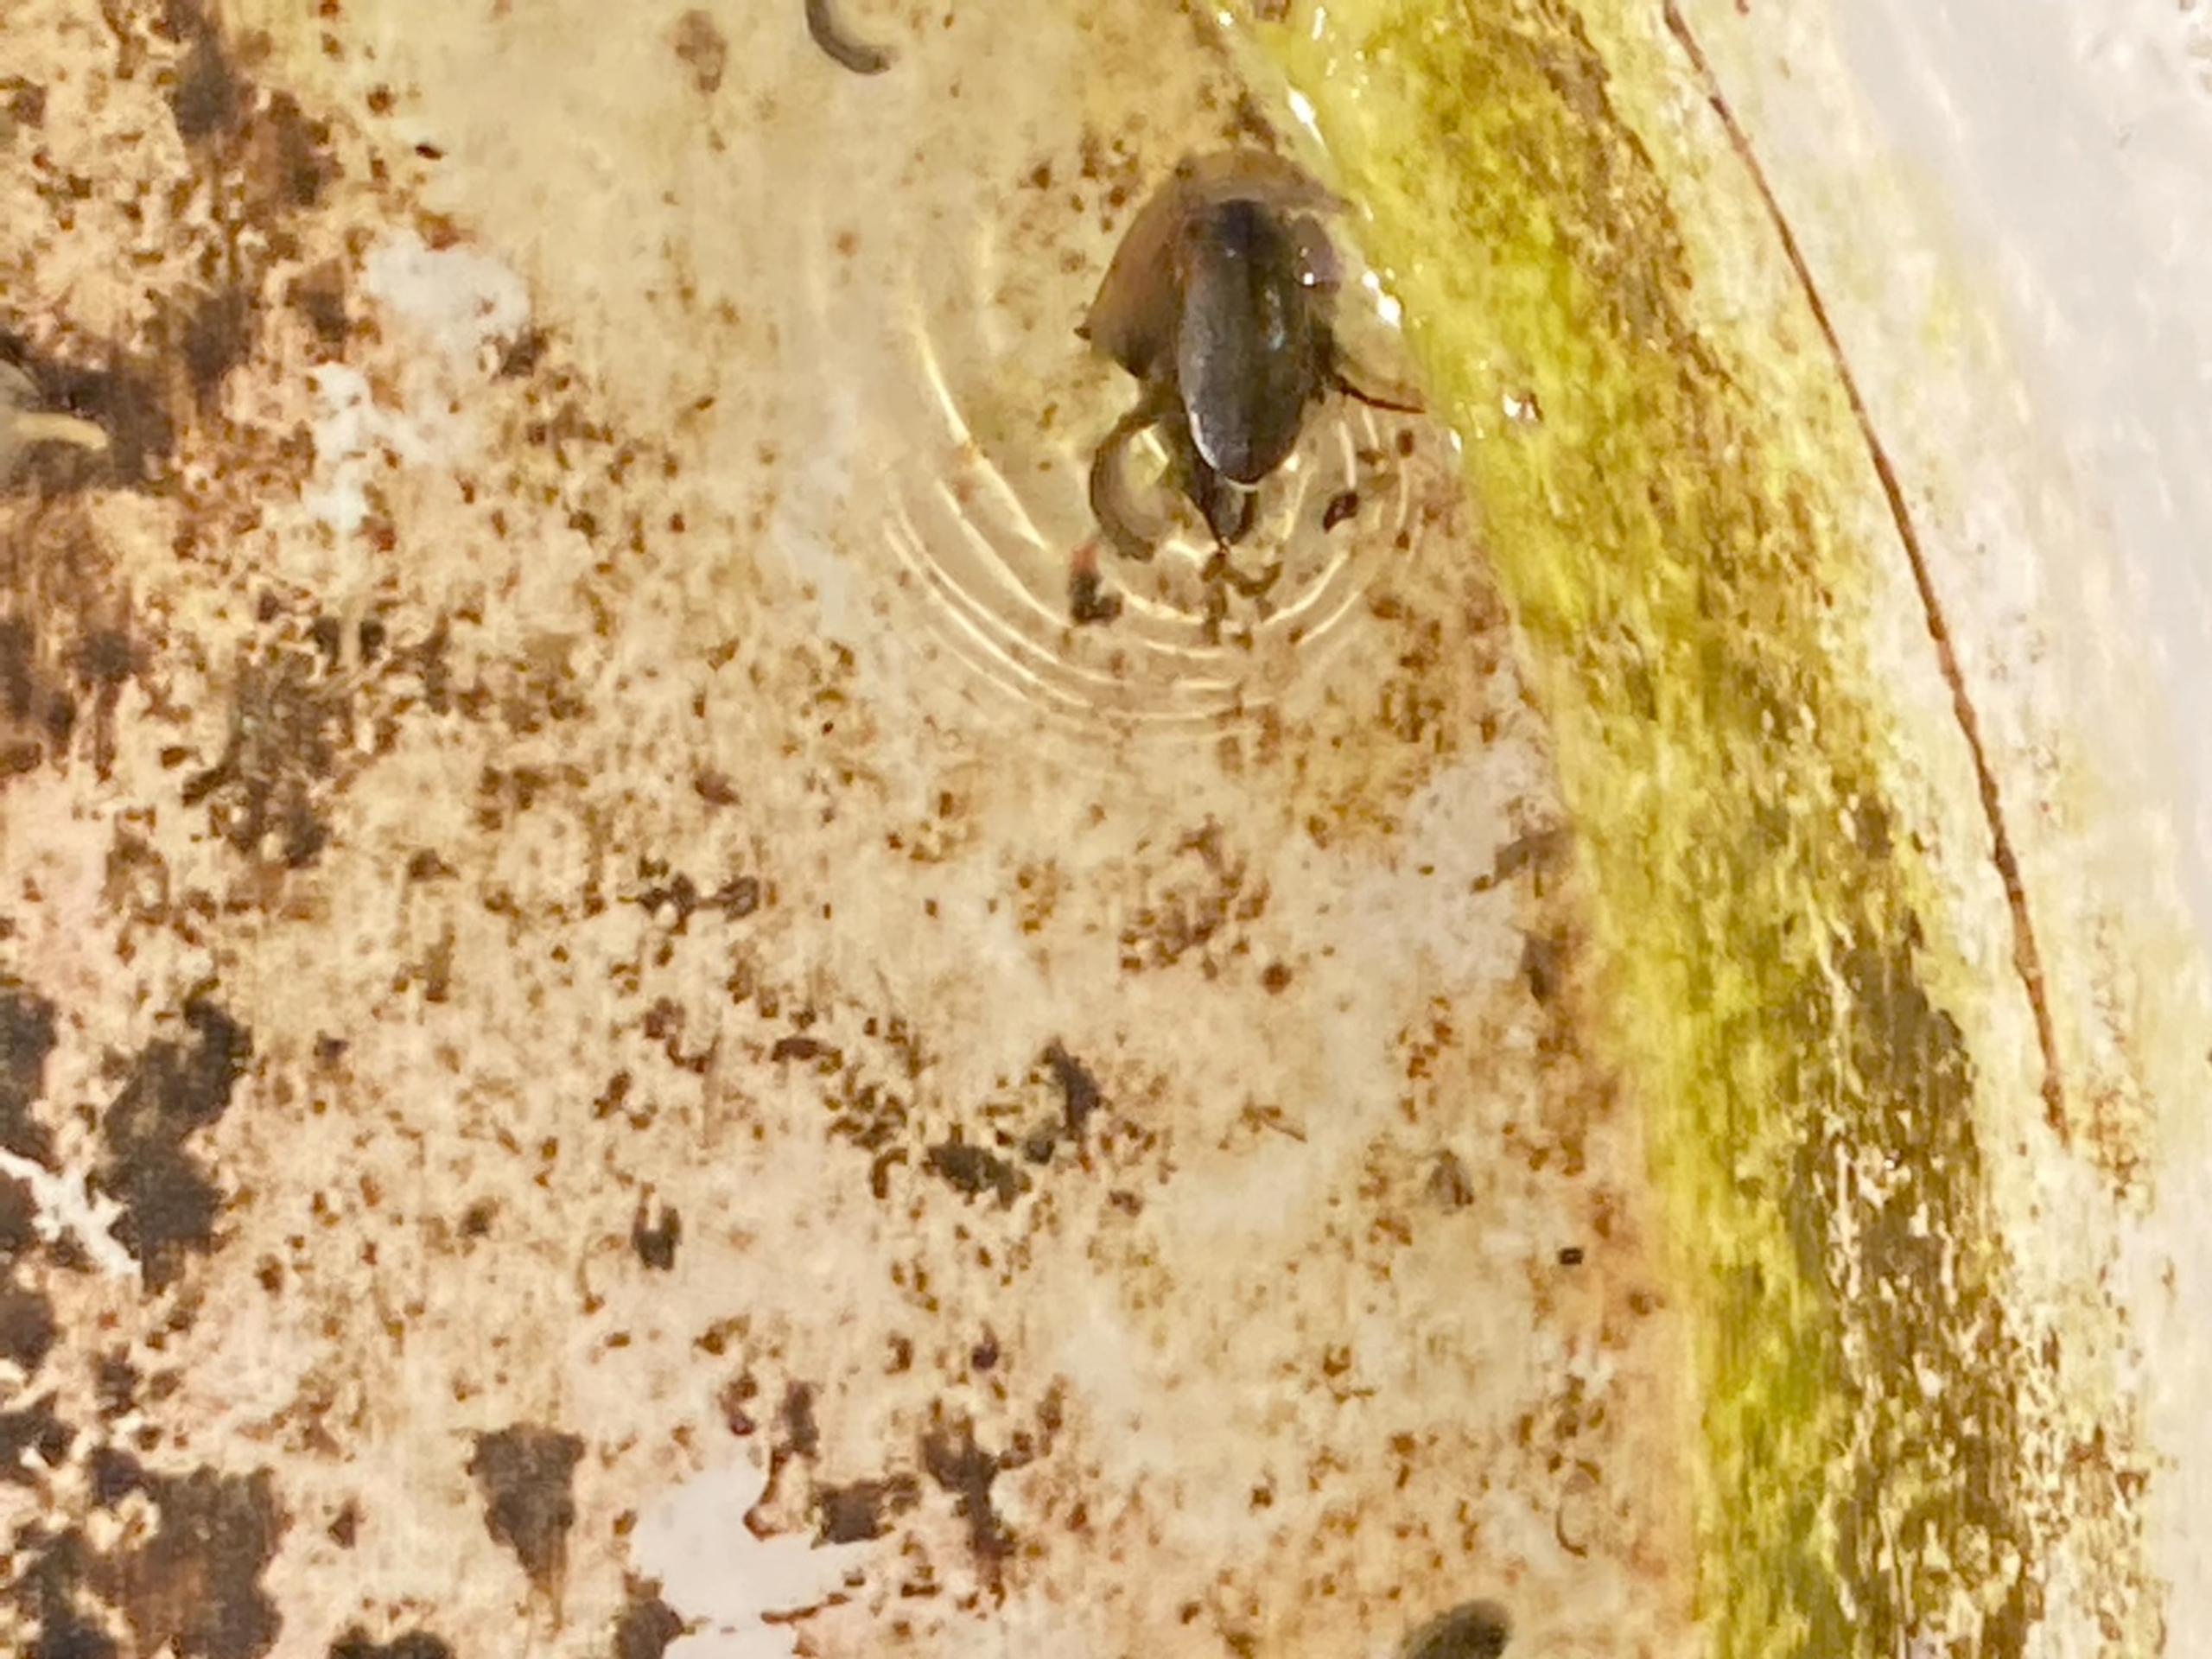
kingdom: Animalia
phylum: Arthropoda
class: Insecta
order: Coleoptera
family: Dytiscidae
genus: Colymbetes
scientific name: Colymbetes fuscus
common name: Tværridset vandkalv
